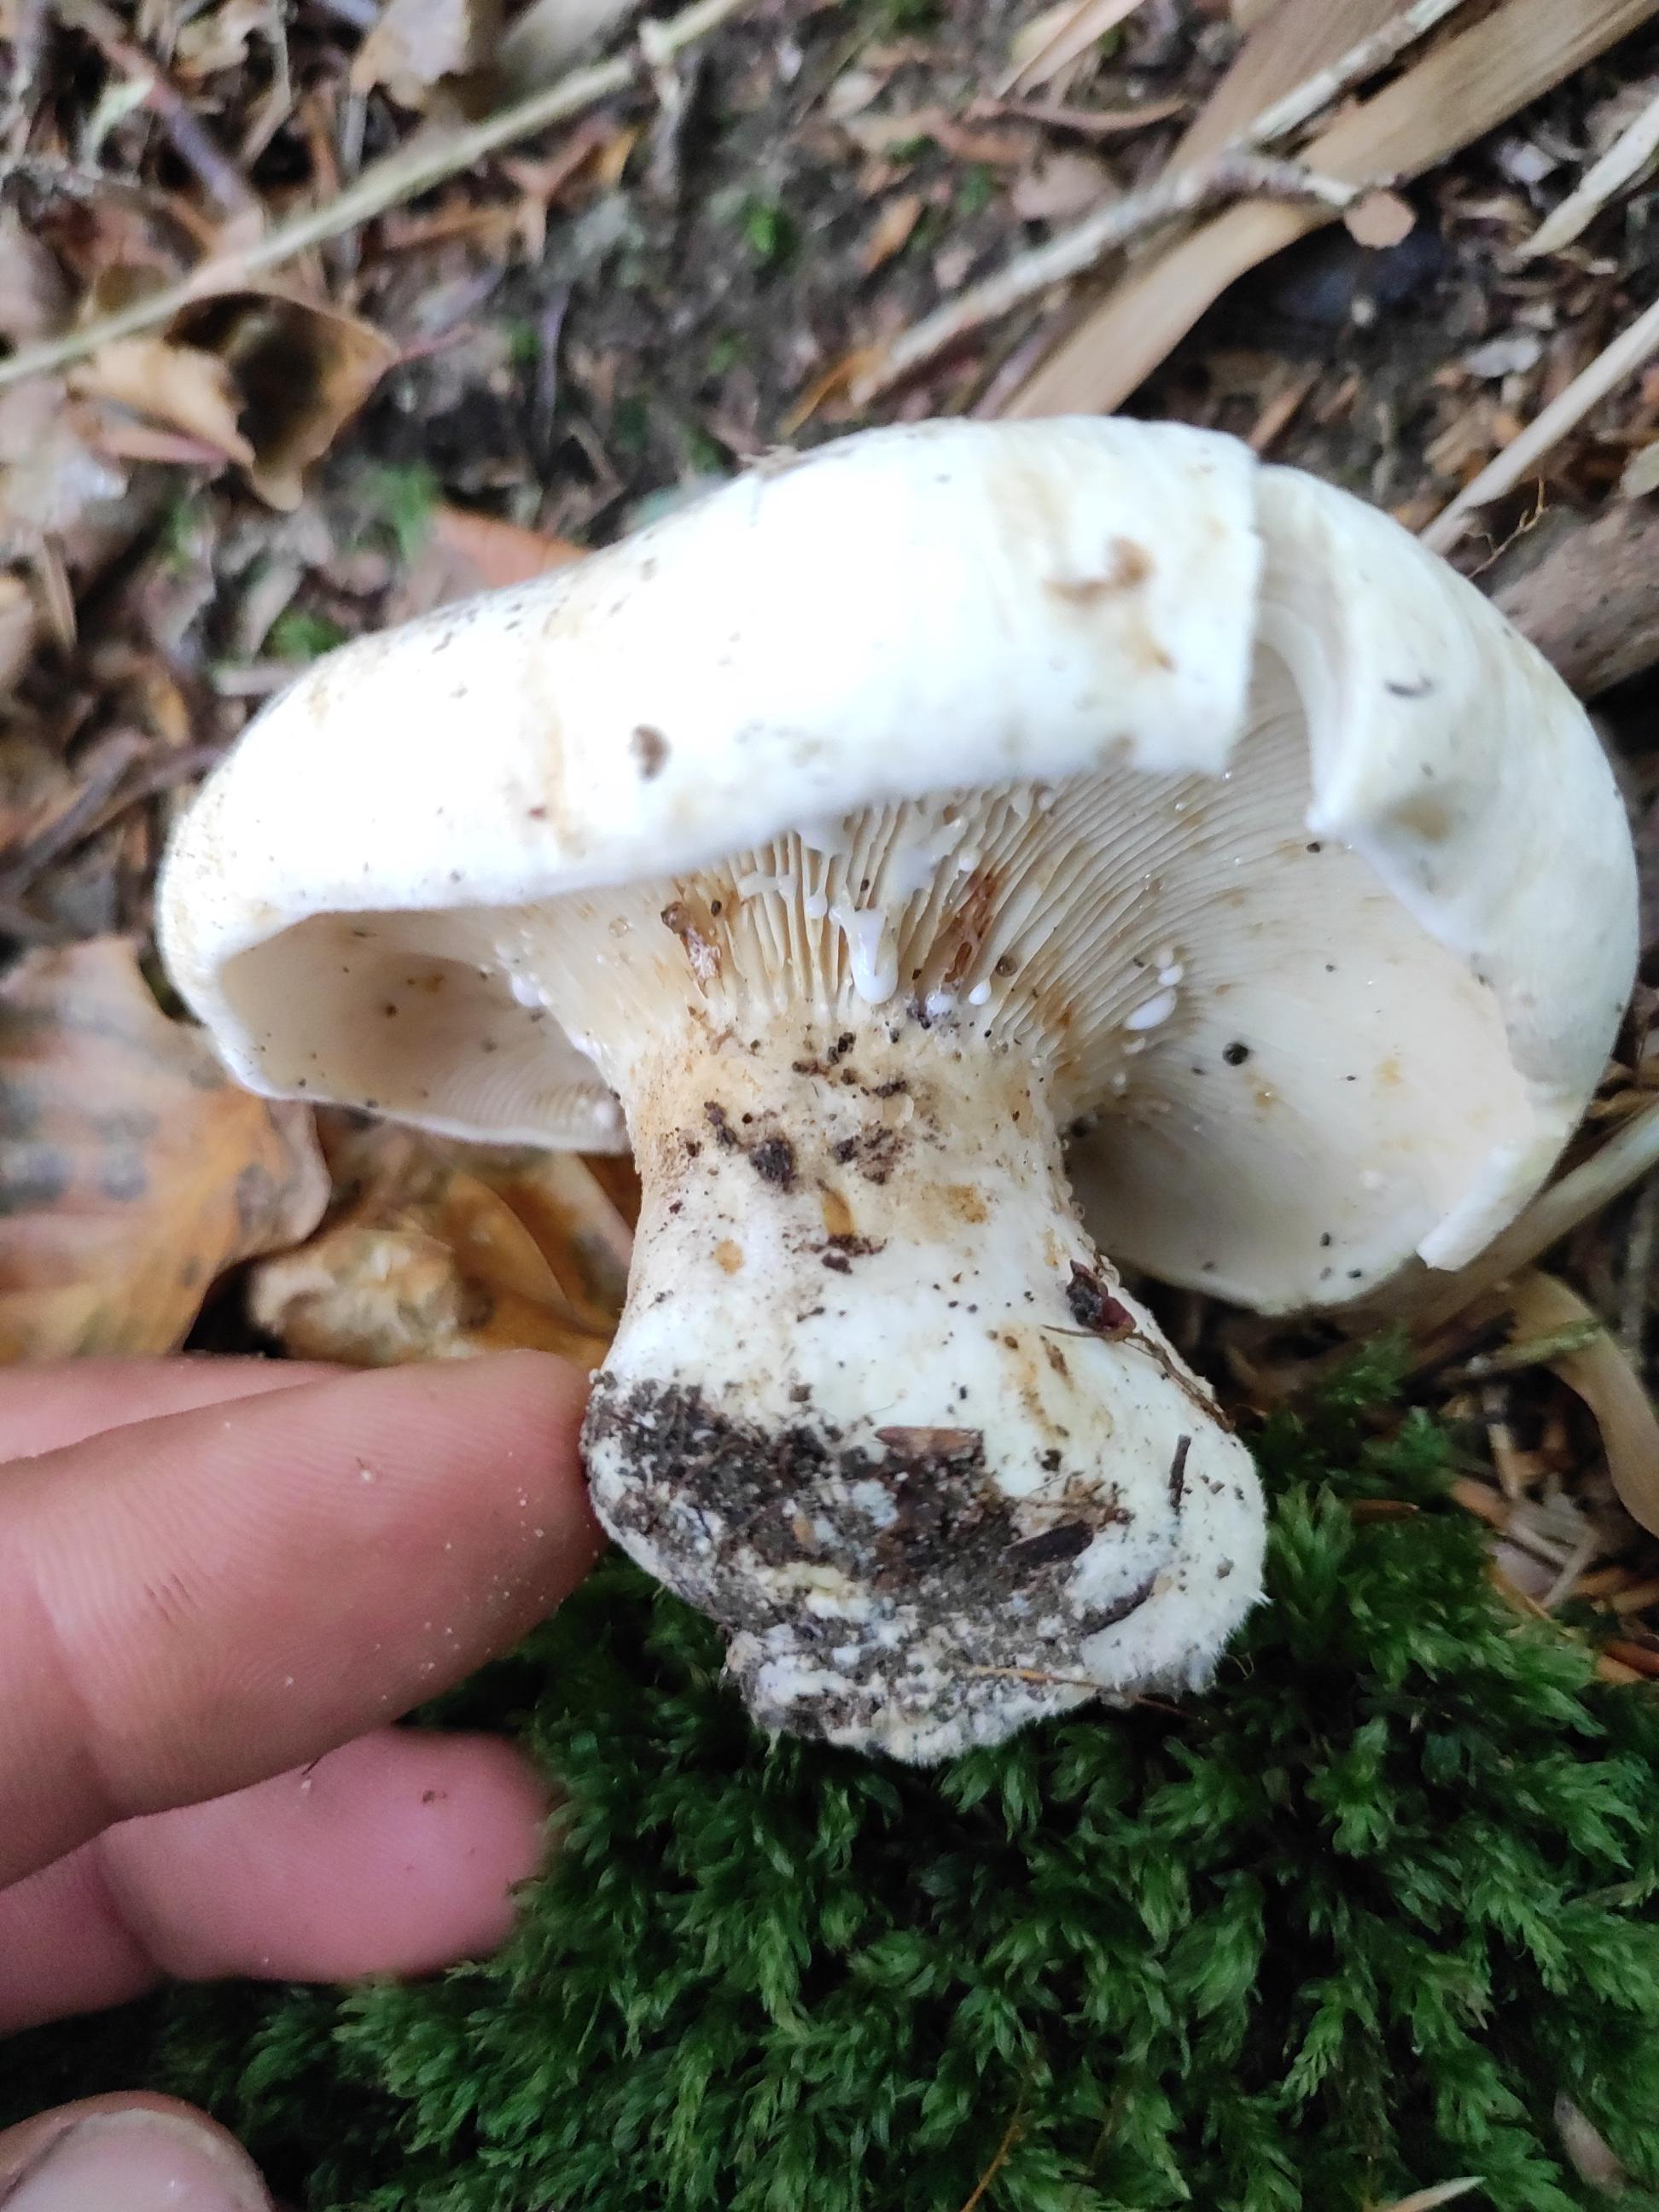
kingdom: Fungi
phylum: Basidiomycota
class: Agaricomycetes
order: Russulales
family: Russulaceae
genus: Lactifluus
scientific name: Lactifluus vellereus
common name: hvidfiltet mælkehat
